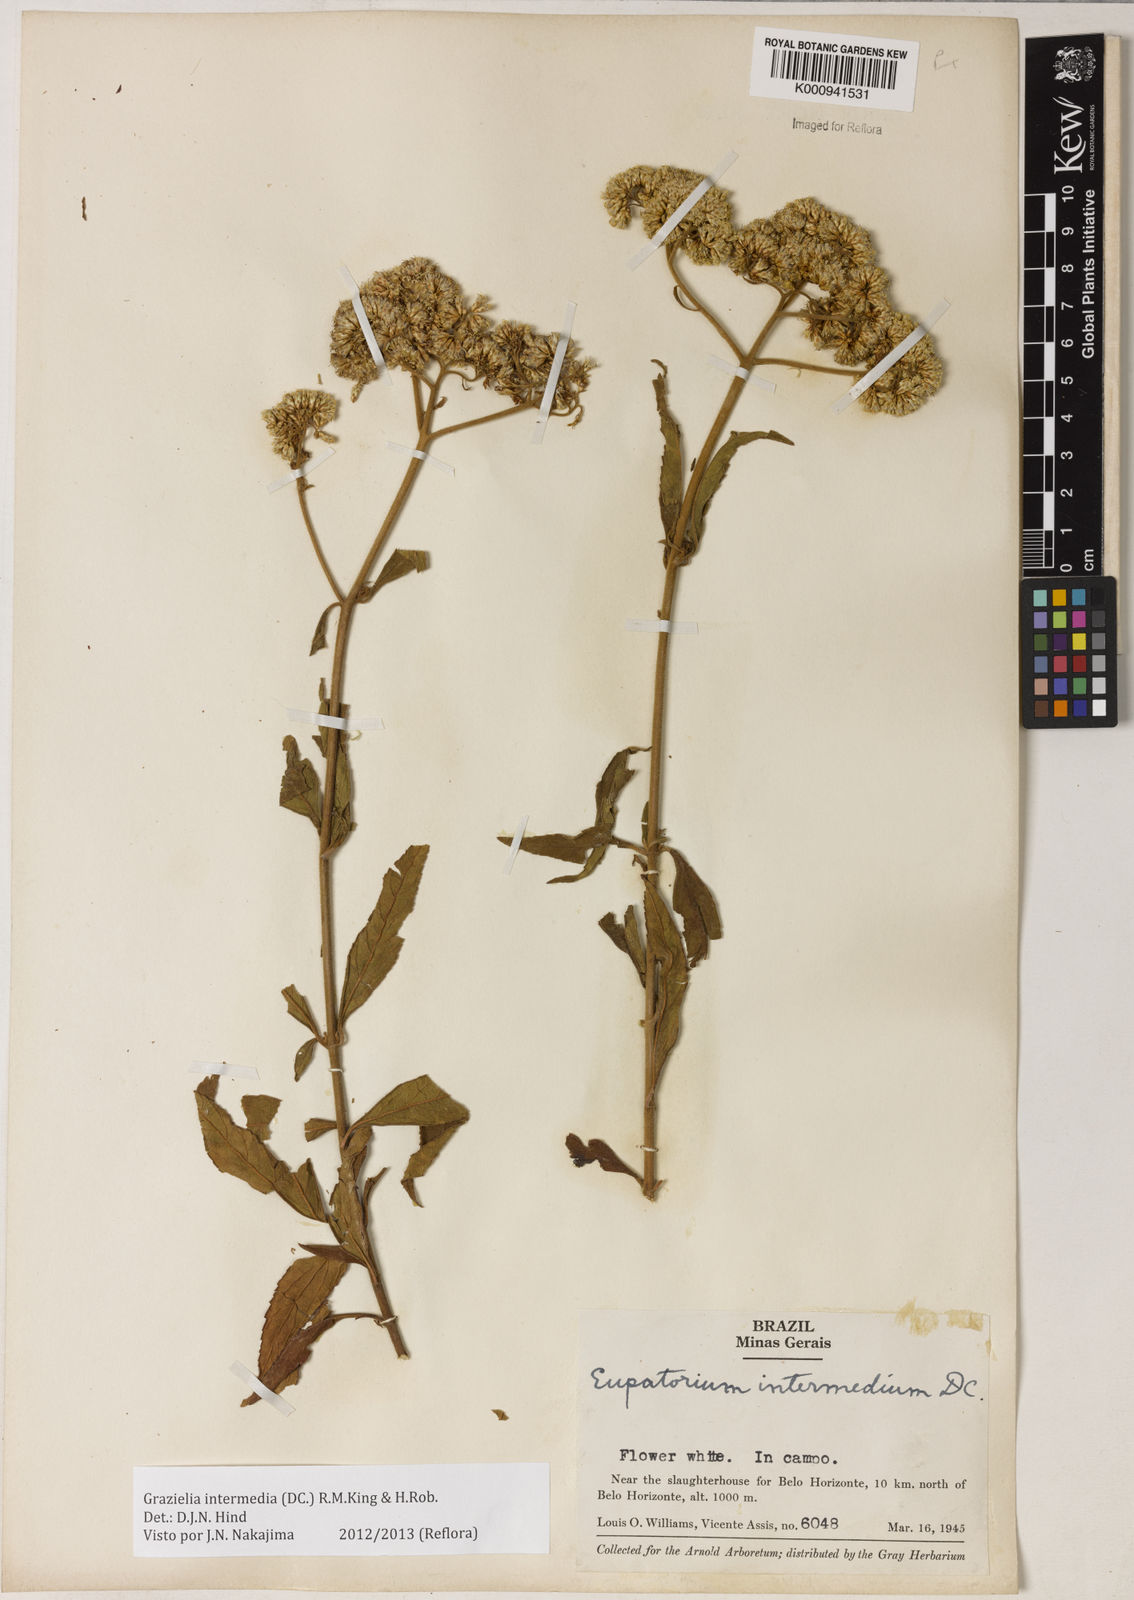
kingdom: Plantae
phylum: Tracheophyta
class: Magnoliopsida
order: Asterales
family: Asteraceae
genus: Grazielia
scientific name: Grazielia intermedia
